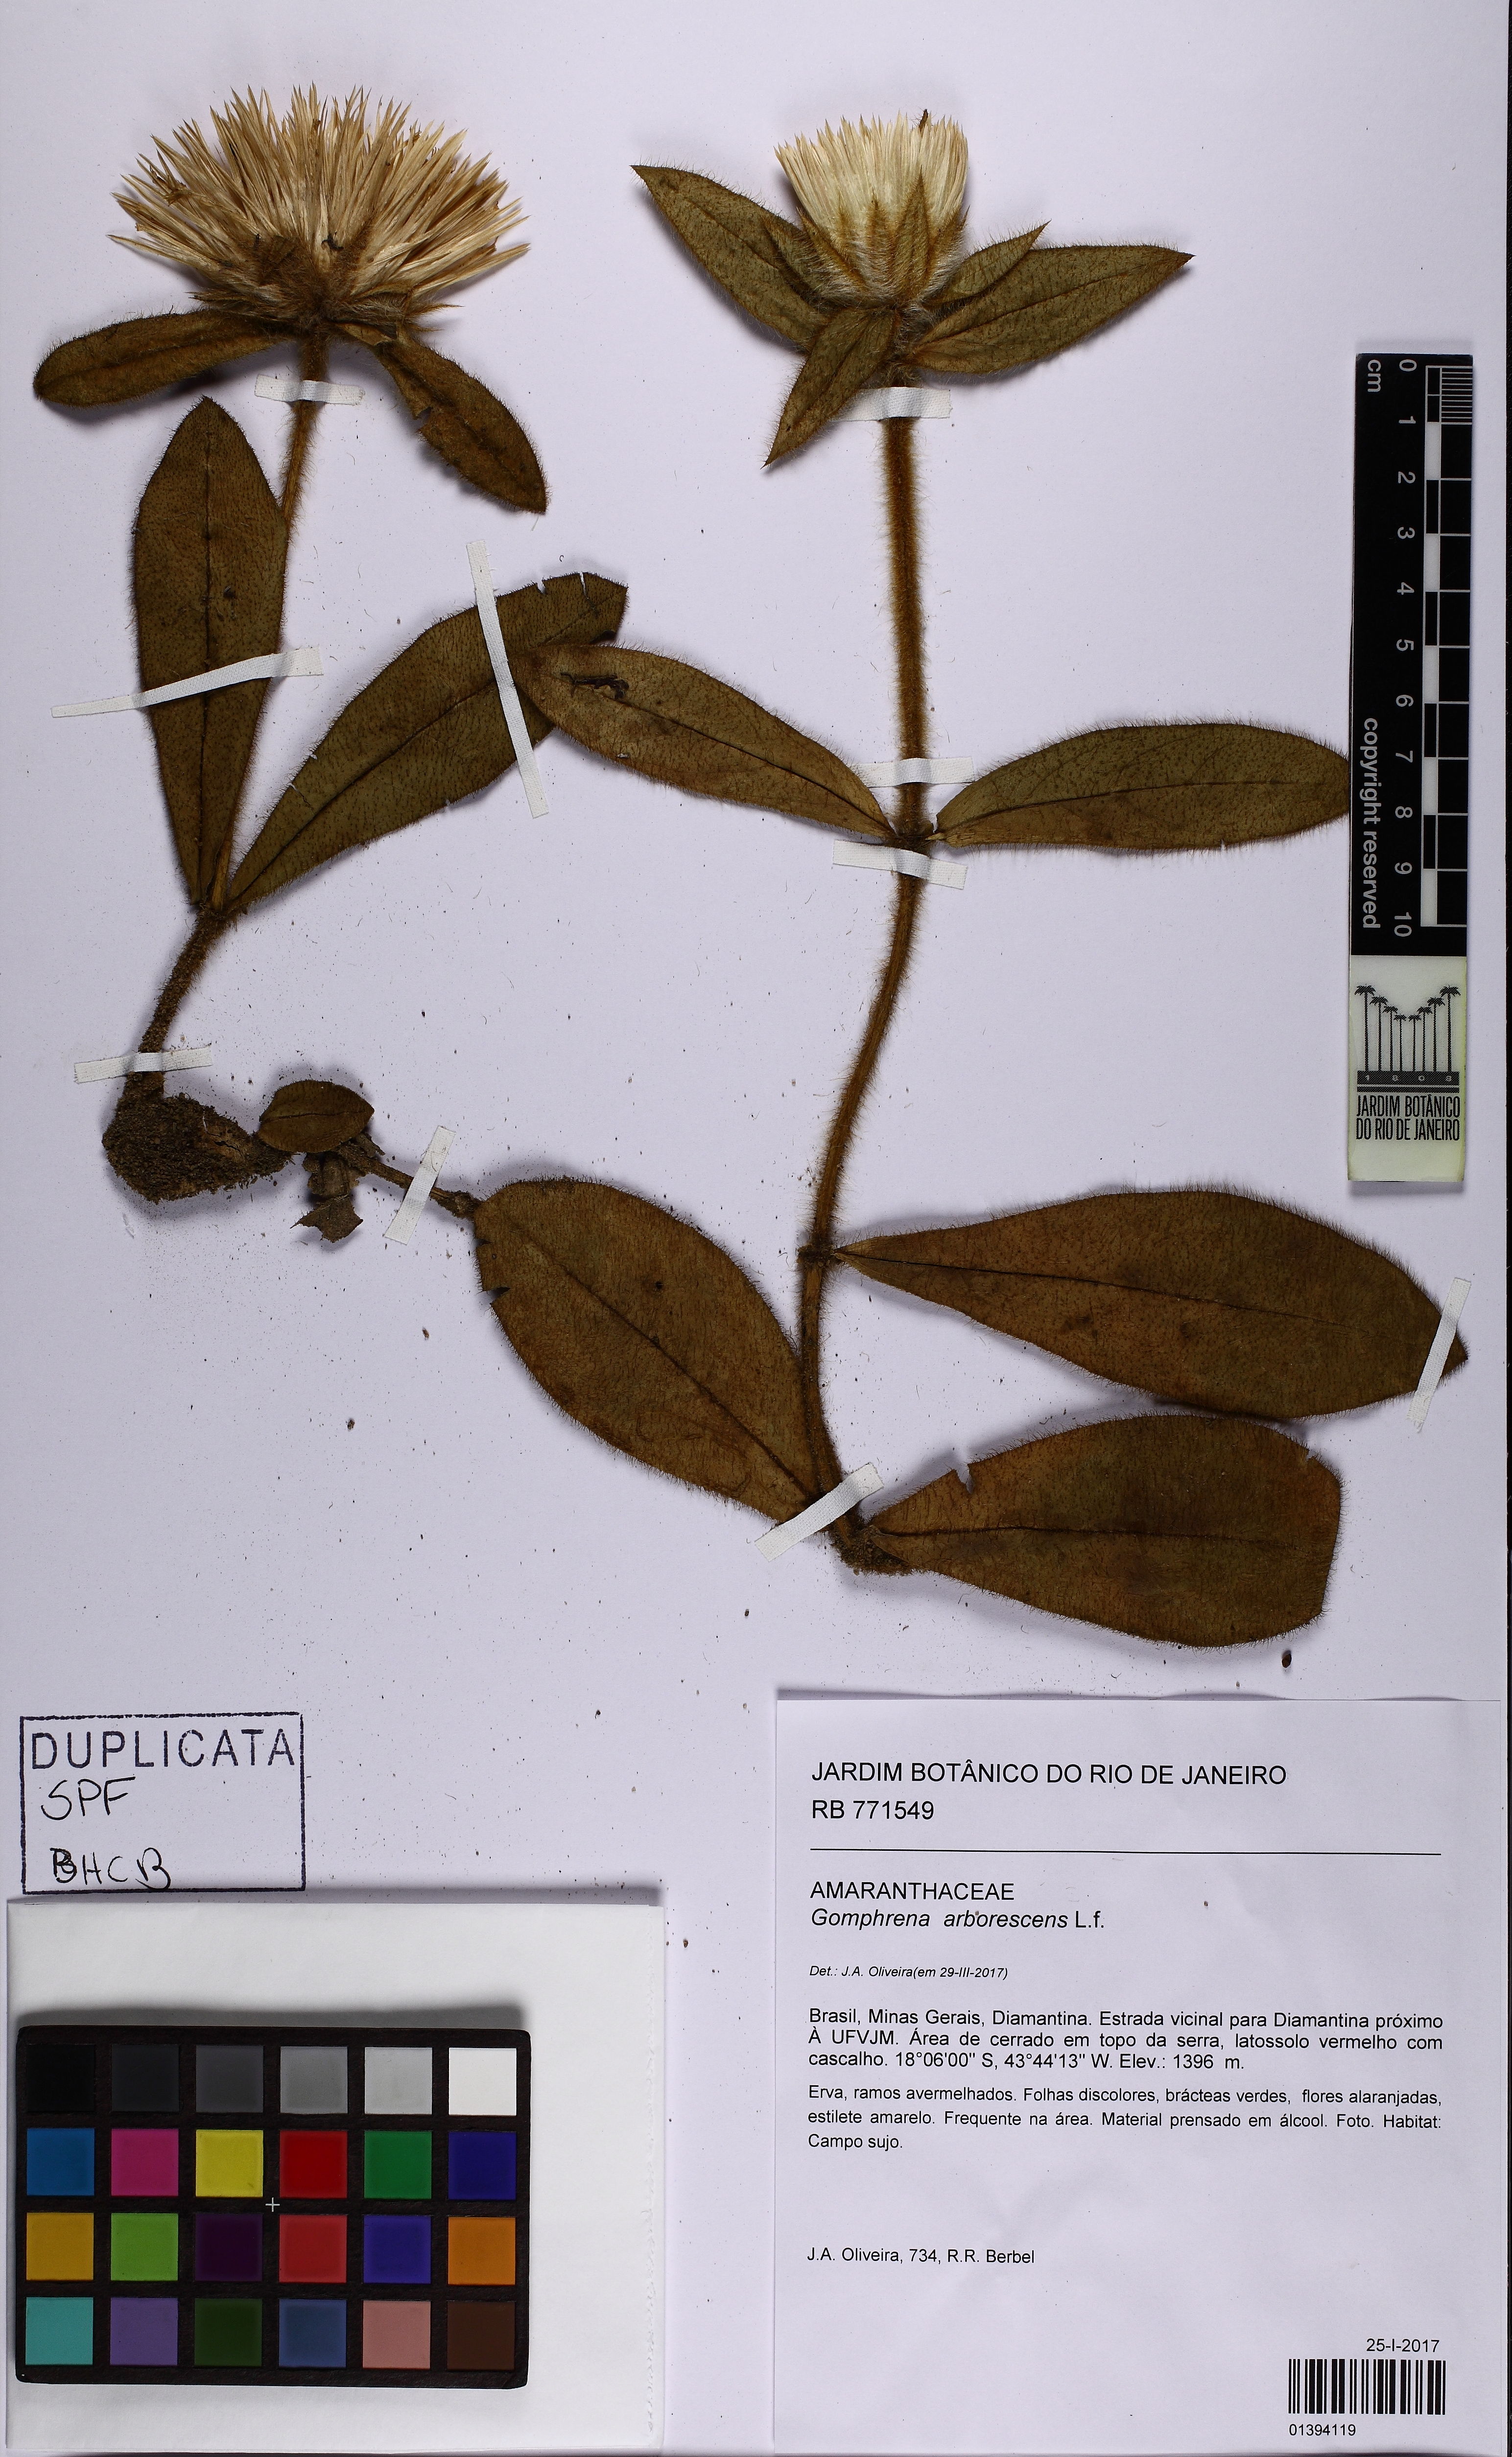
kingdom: Plantae
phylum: Tracheophyta
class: Magnoliopsida
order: Caryophyllales
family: Amaranthaceae
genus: Gomphrena
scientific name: Gomphrena arborescens
